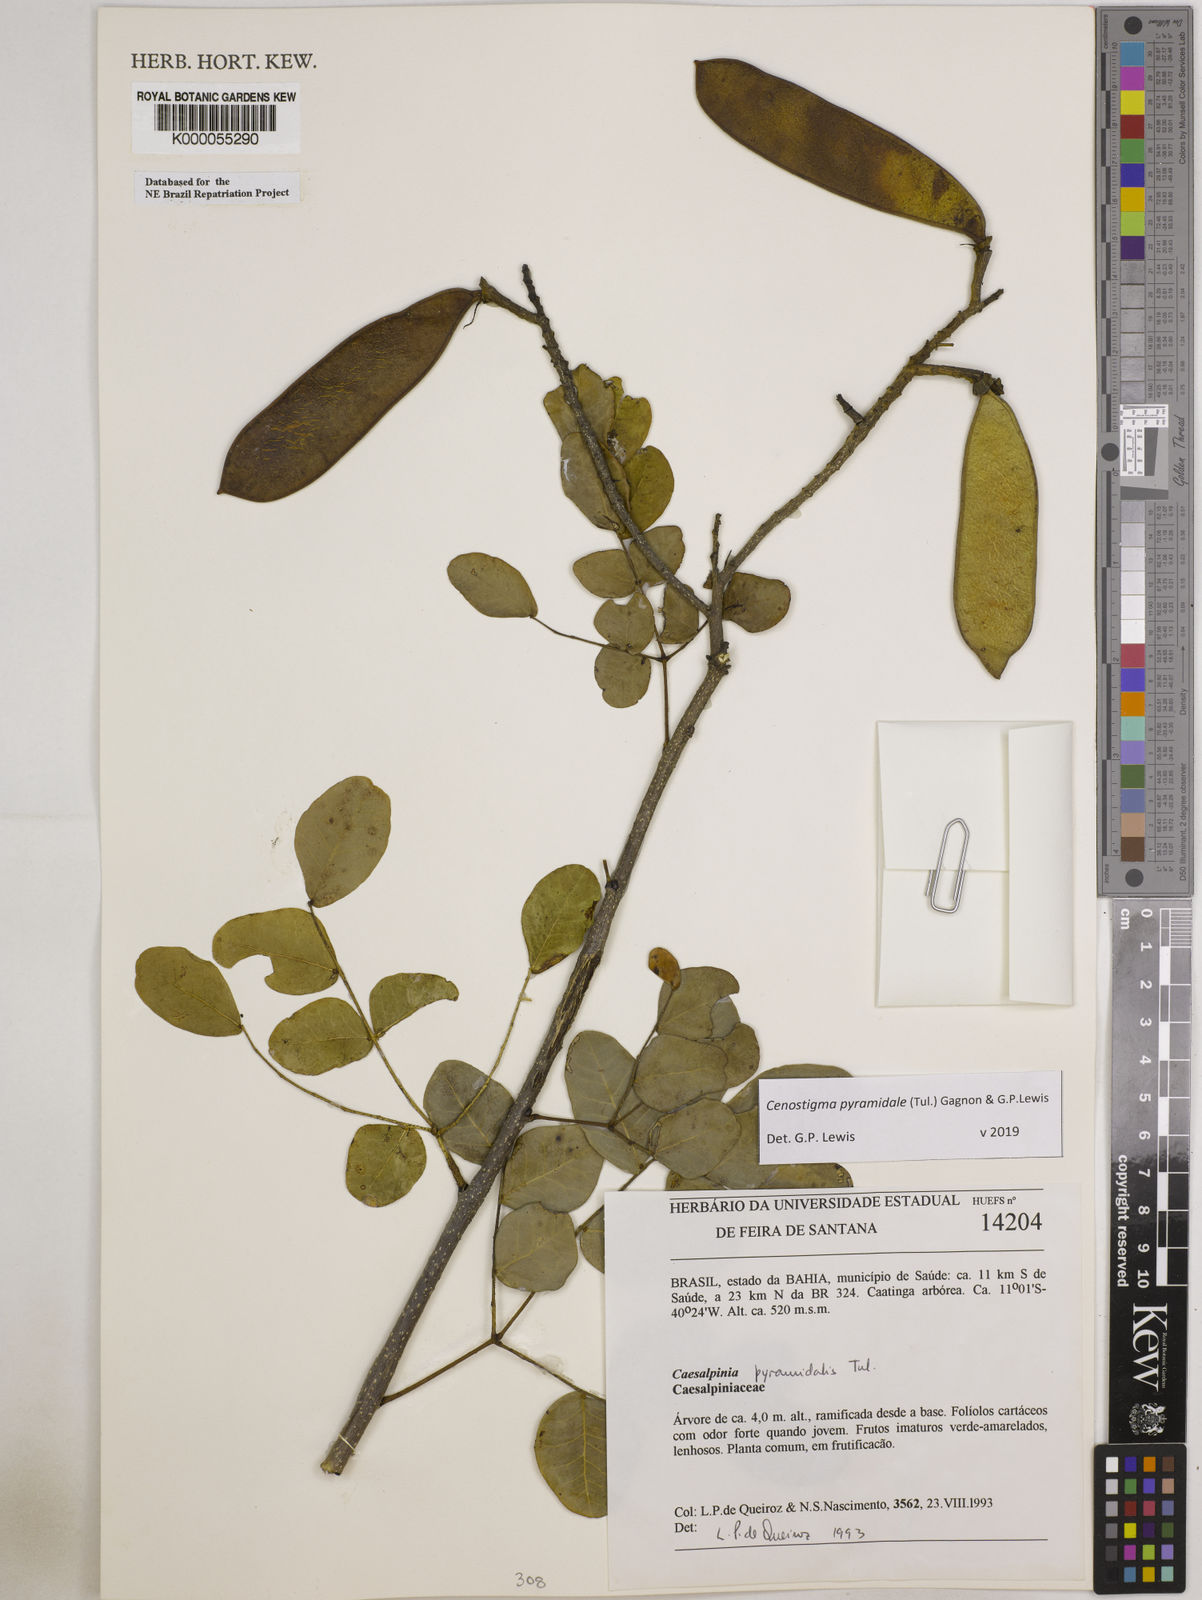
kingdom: Plantae
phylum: Tracheophyta
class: Magnoliopsida
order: Fabales
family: Fabaceae
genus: Cenostigma
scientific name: Cenostigma pyramidale
